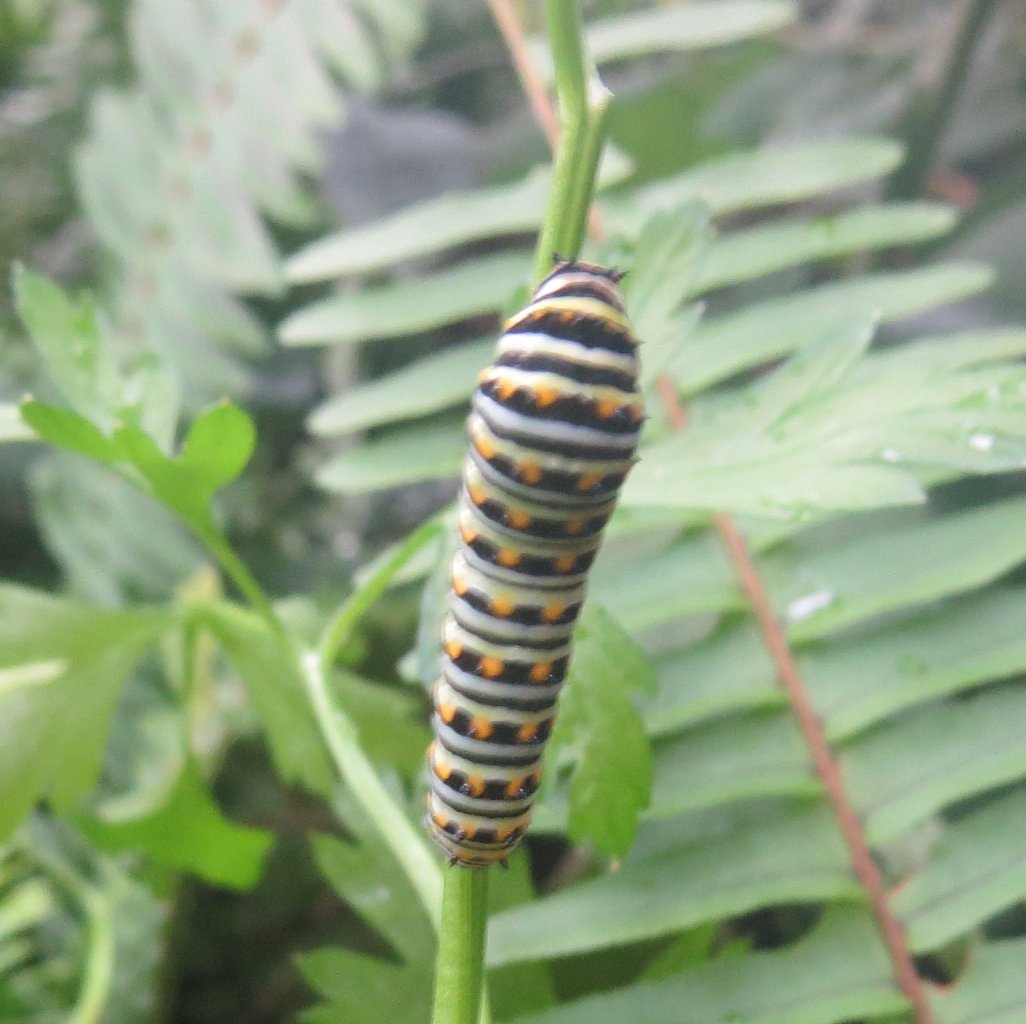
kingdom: Animalia
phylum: Arthropoda
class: Insecta
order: Lepidoptera
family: Papilionidae
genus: Papilio
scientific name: Papilio polyxenes
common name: Black Swallowtail
